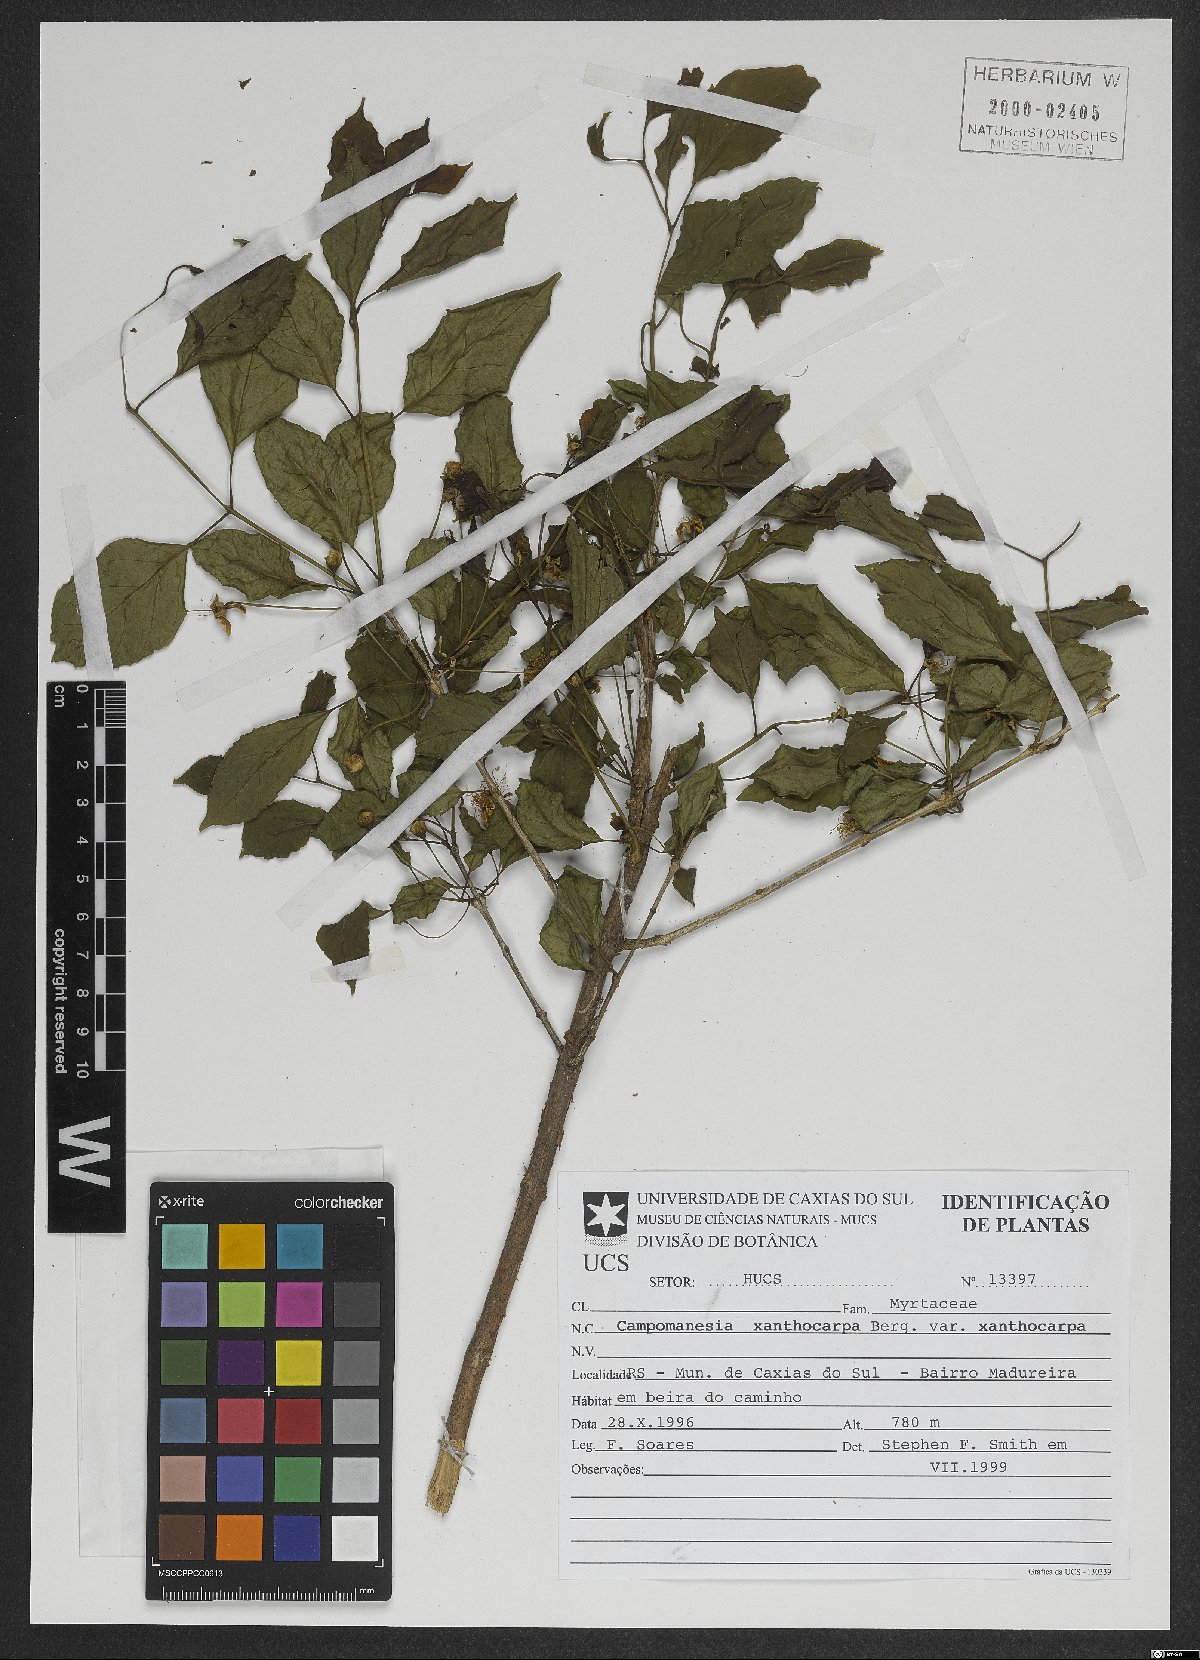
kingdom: Plantae
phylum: Tracheophyta
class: Magnoliopsida
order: Myrtales
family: Myrtaceae
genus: Campomanesia
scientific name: Campomanesia xanthocarpa
